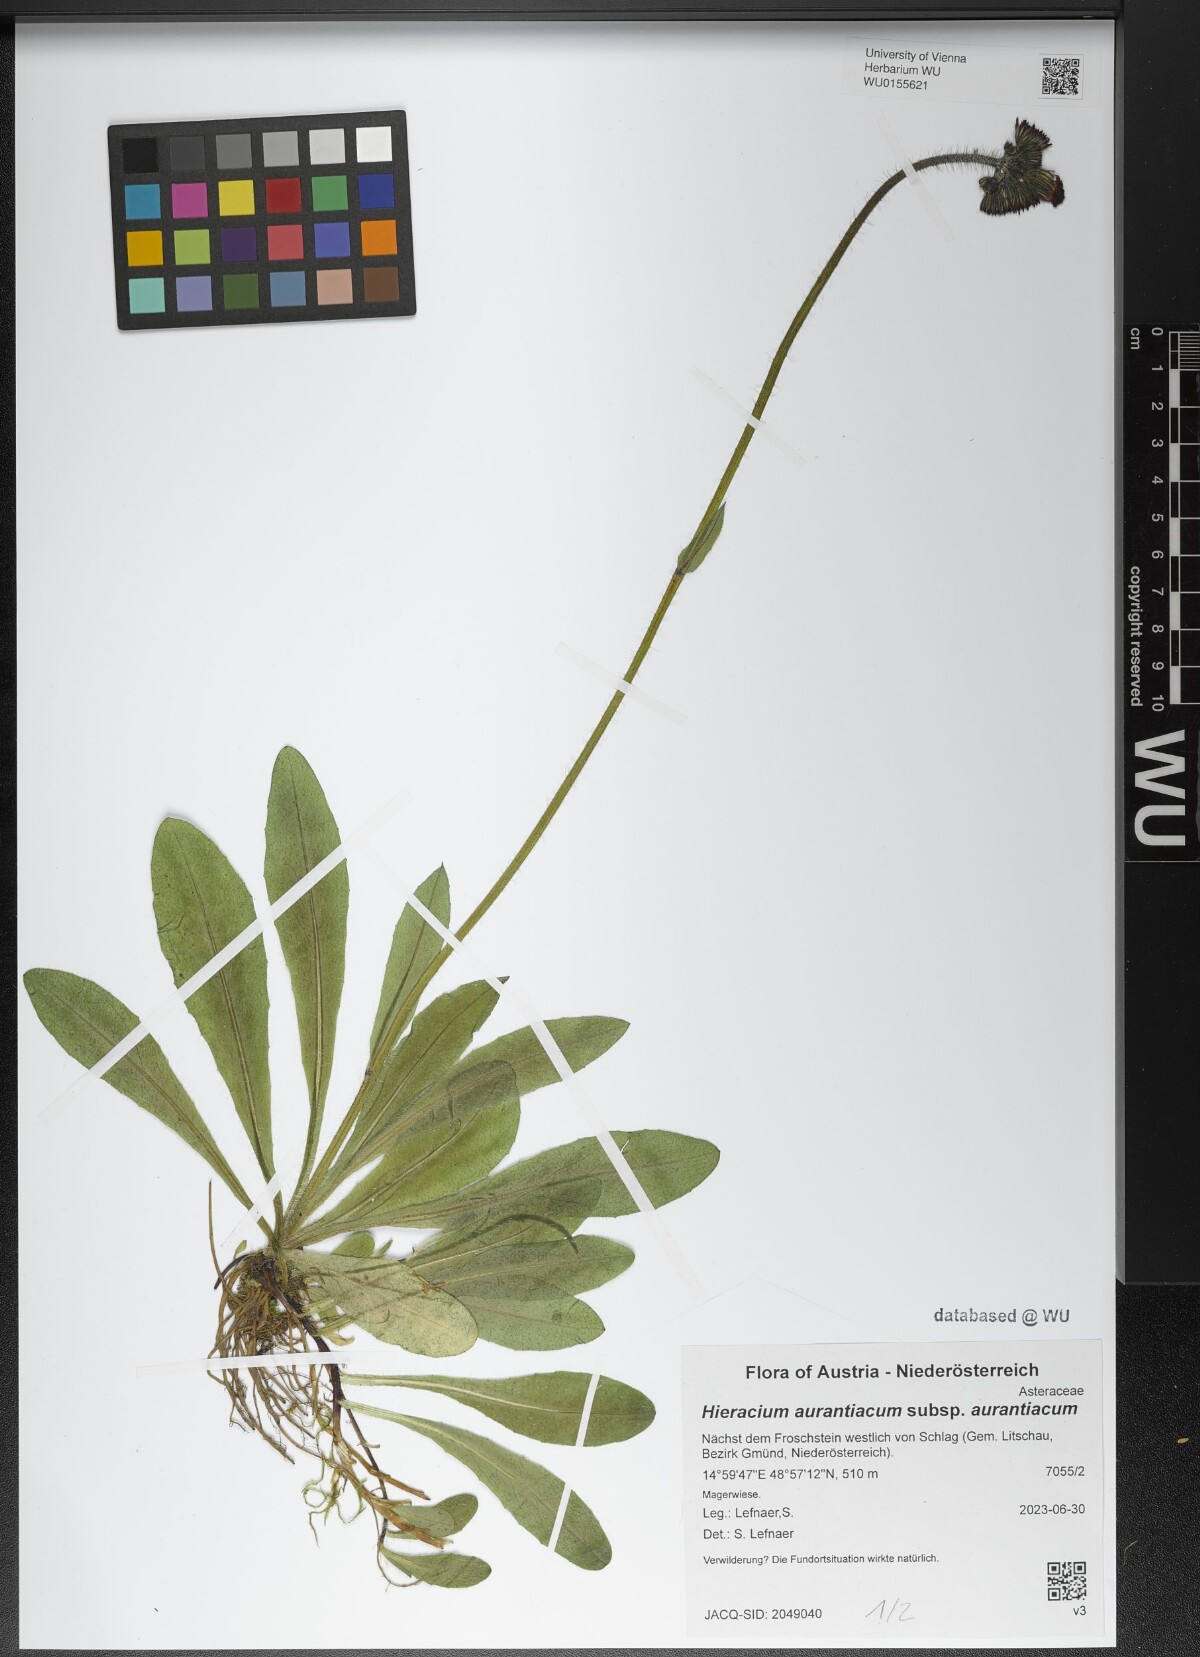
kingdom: Plantae
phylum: Tracheophyta
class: Magnoliopsida
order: Asterales
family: Asteraceae
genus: Pilosella
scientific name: Pilosella aurantiaca
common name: Fox-and-cubs
